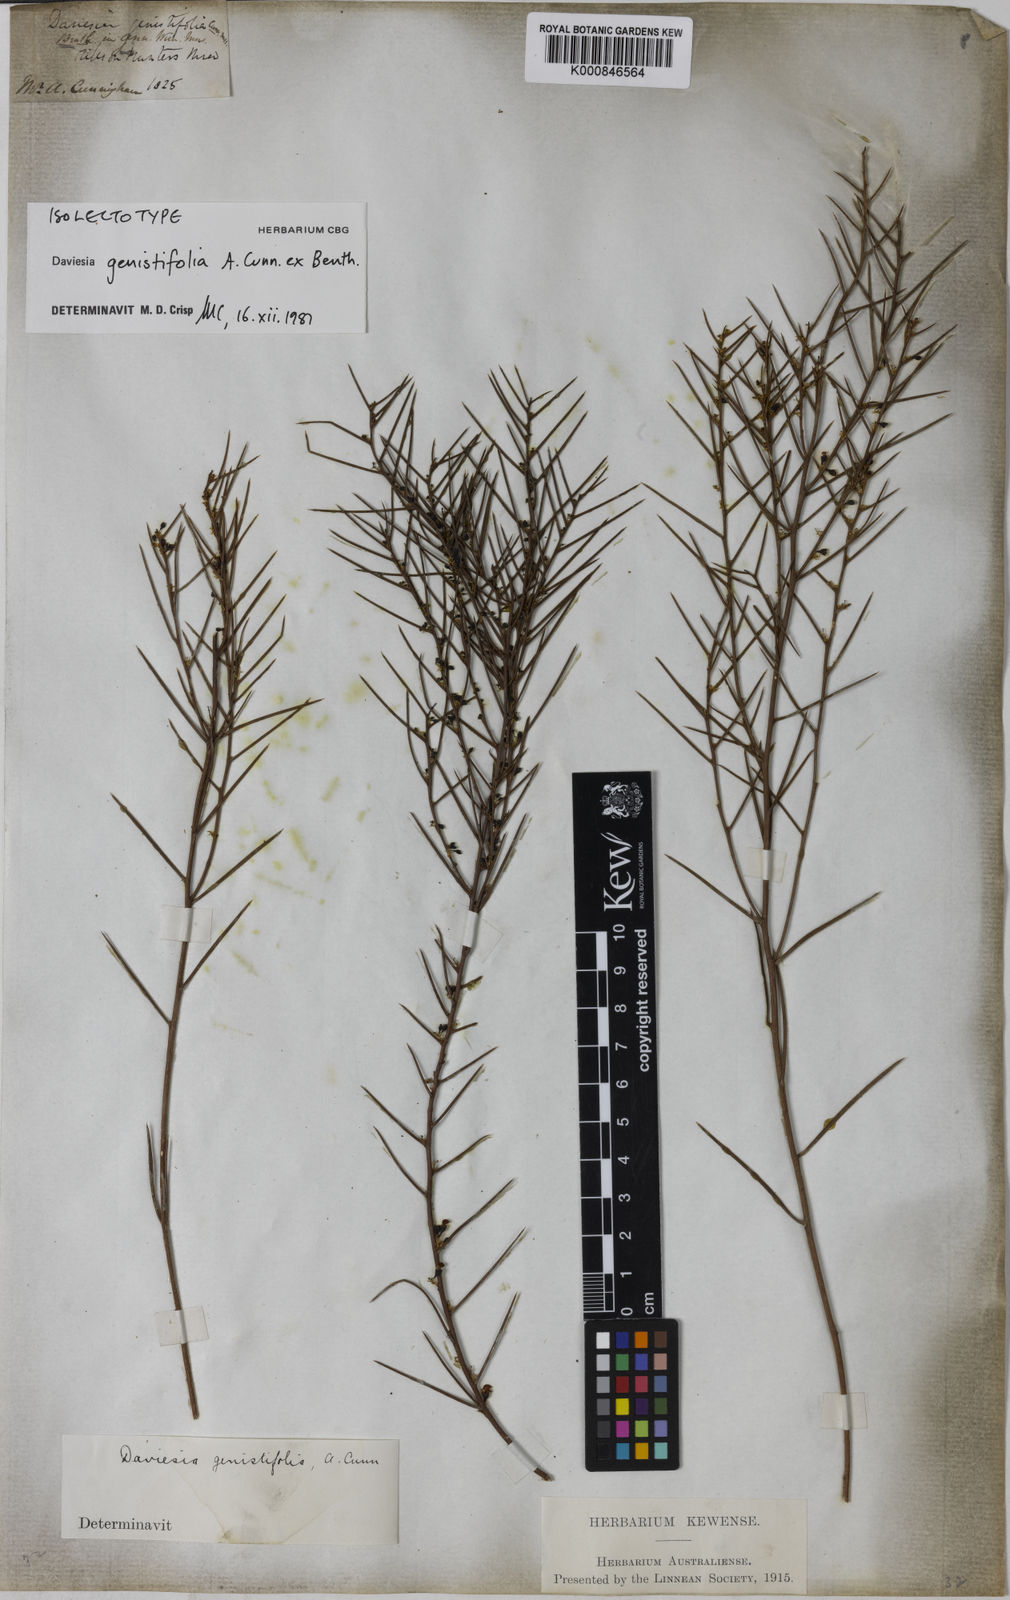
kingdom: Plantae
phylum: Tracheophyta
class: Magnoliopsida
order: Fabales
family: Fabaceae
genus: Daviesia
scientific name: Daviesia genistifolia
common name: Broom bitter-pea
